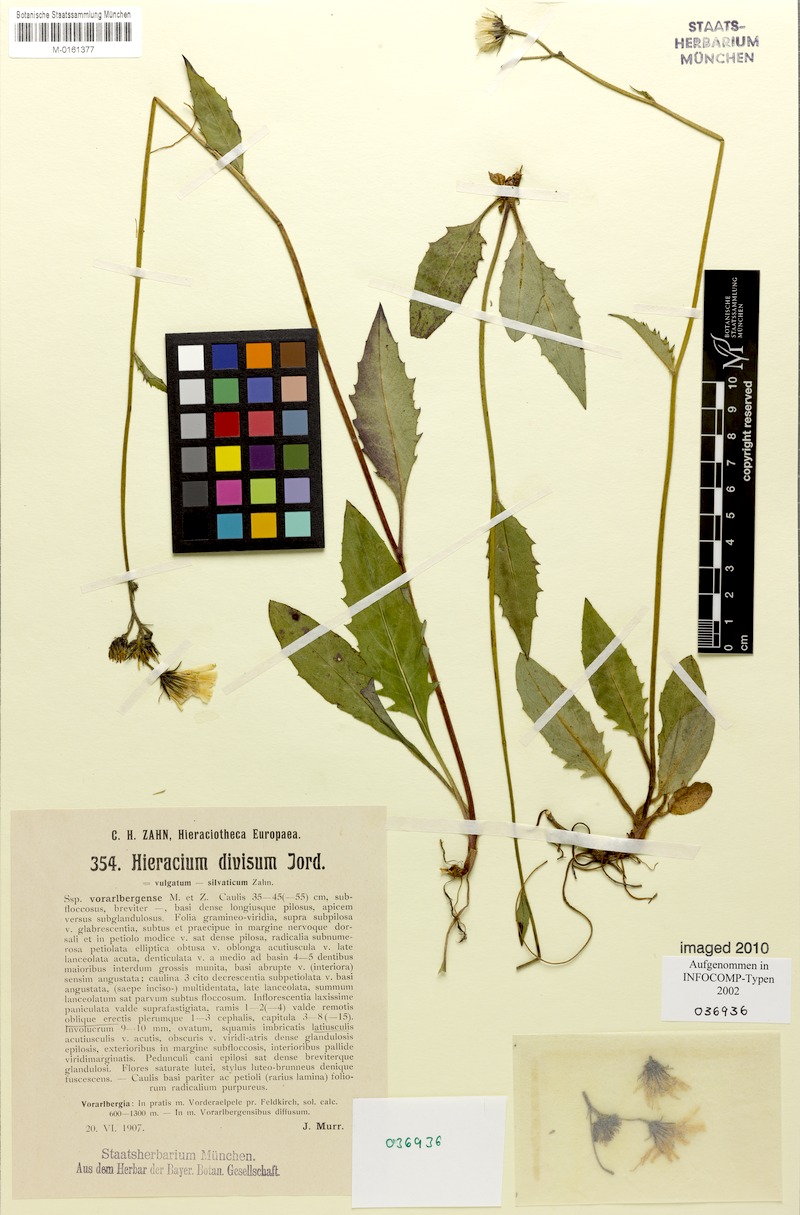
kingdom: Plantae
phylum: Tracheophyta
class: Magnoliopsida
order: Asterales
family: Asteraceae
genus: Hieracium
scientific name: Hieracium diaphanoides
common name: Fine-bracted hawkweed
